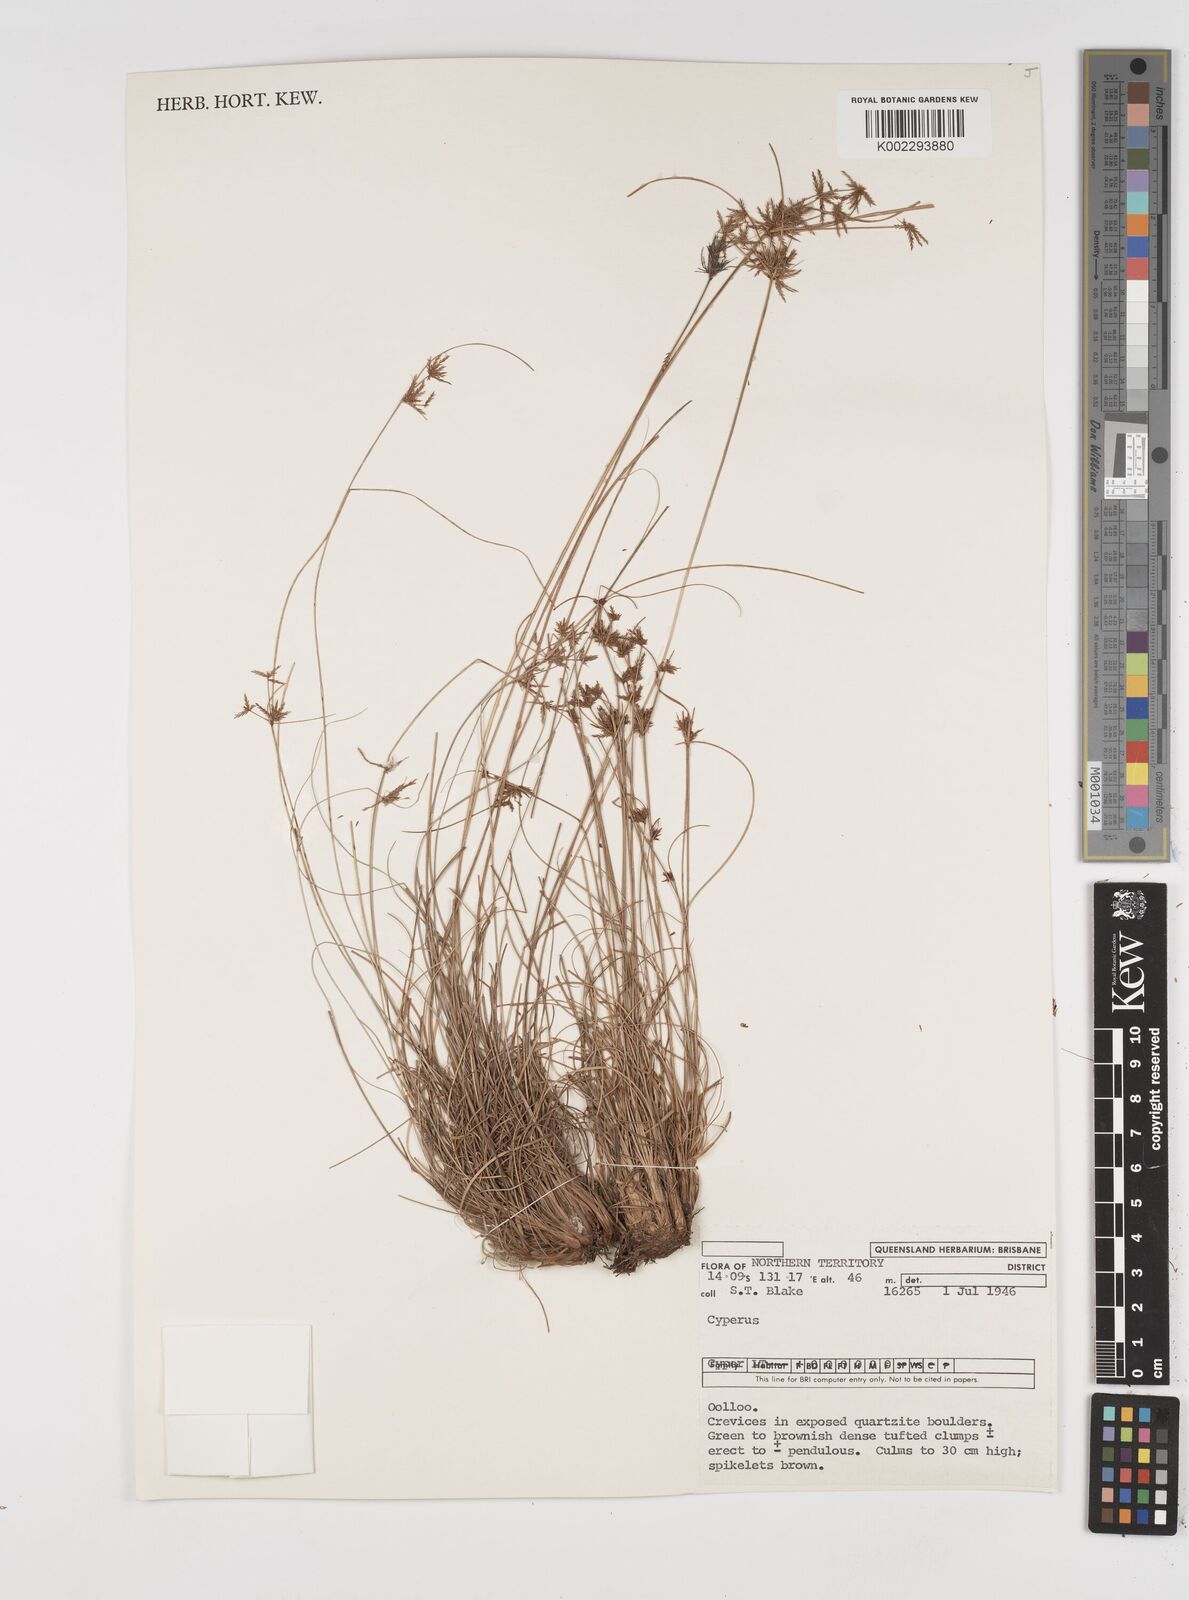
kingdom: Plantae
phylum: Tracheophyta
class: Liliopsida
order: Poales
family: Cyperaceae
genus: Cyperus
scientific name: Cyperus
